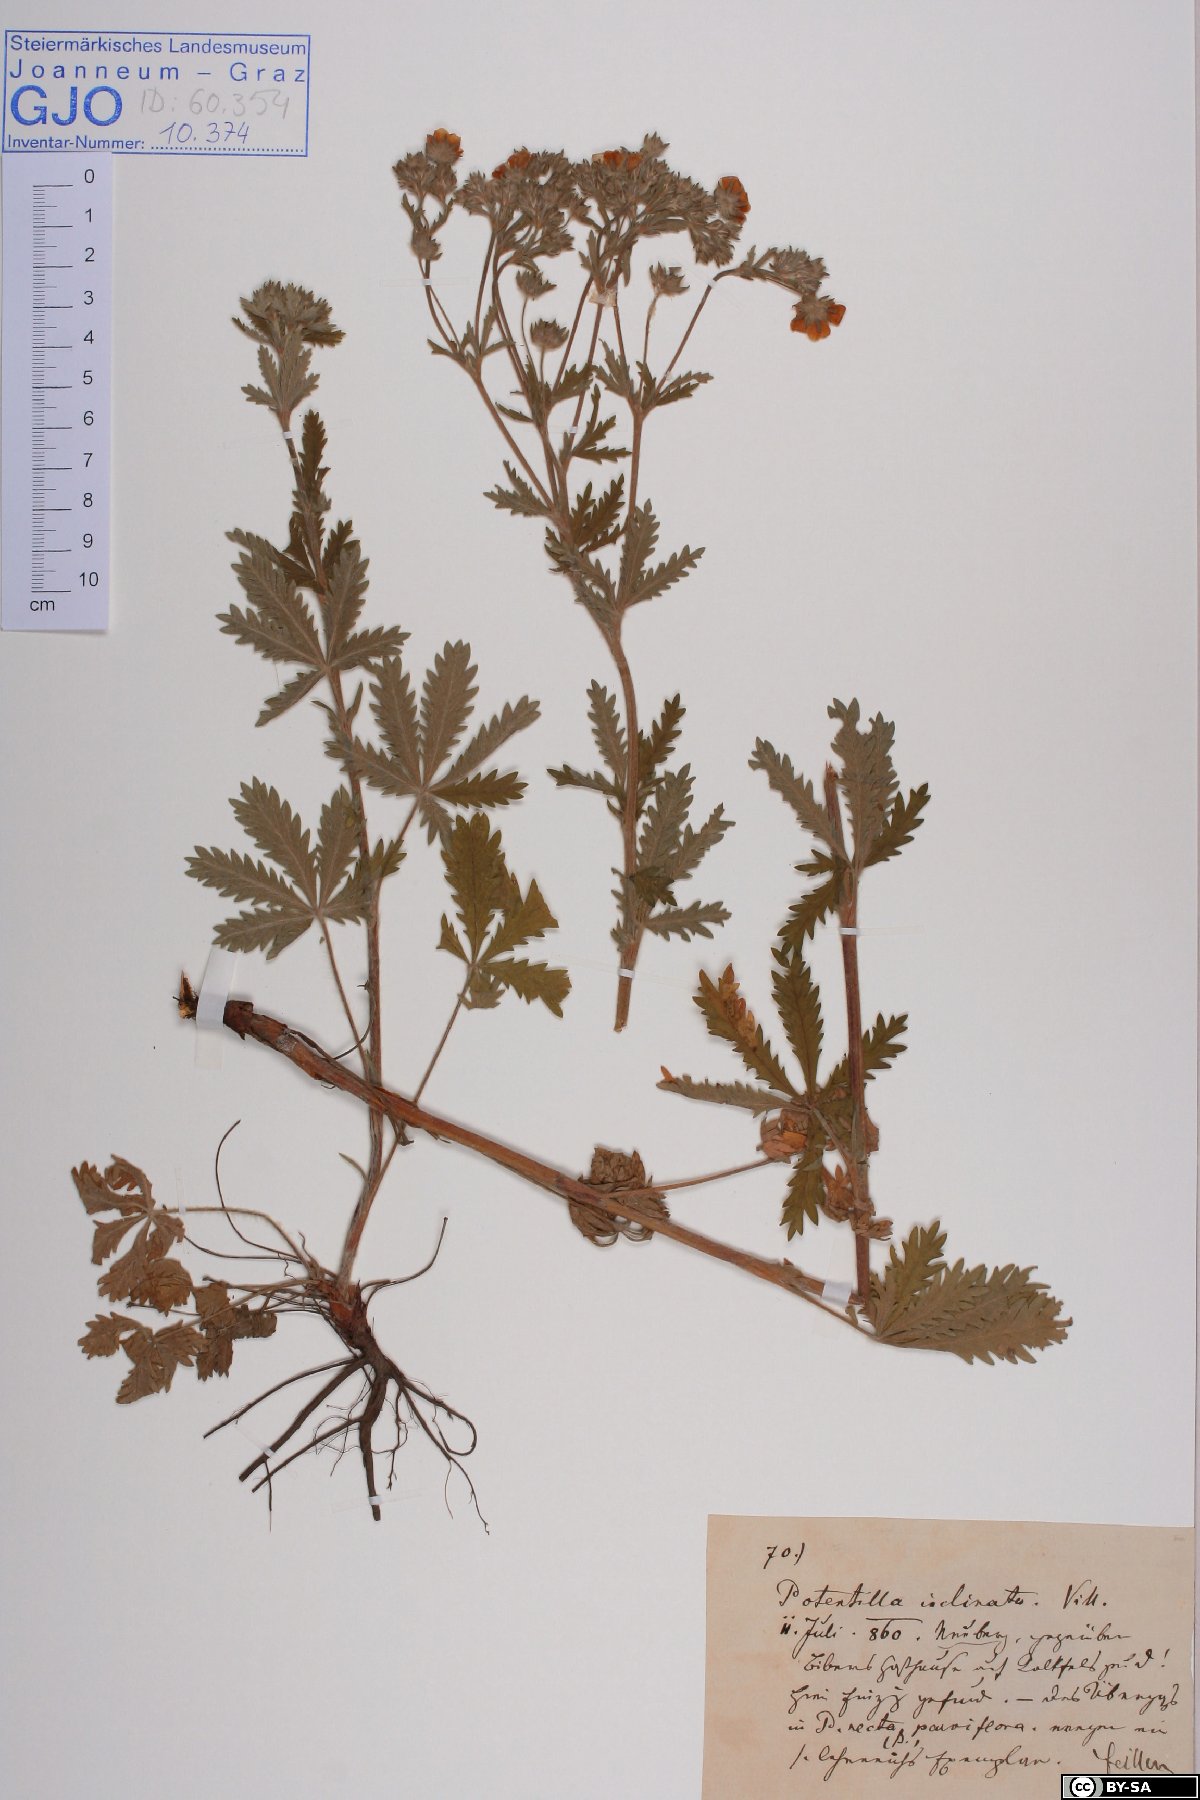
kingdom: Plantae
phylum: Tracheophyta
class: Magnoliopsida
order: Rosales
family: Rosaceae
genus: Potentilla
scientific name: Potentilla inclinata
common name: Grey cinquefoil
